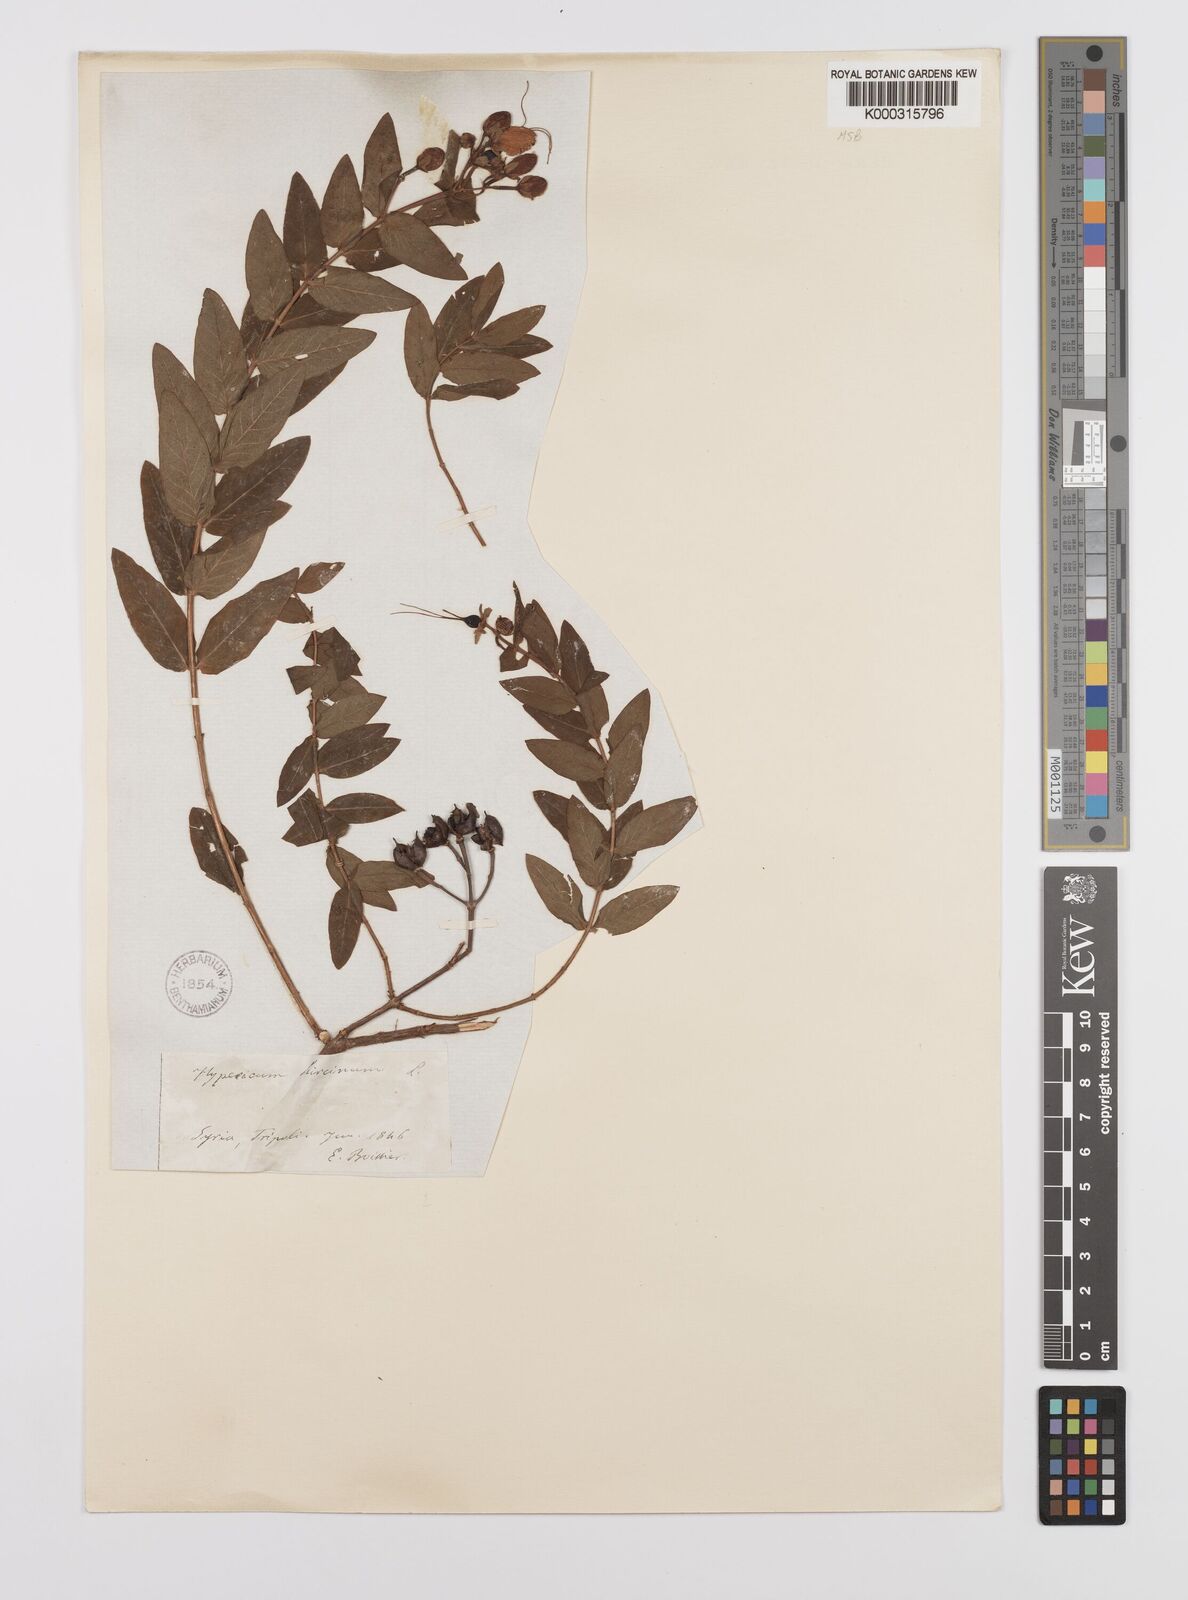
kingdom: Plantae
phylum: Tracheophyta
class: Magnoliopsida
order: Malpighiales
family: Hypericaceae
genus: Hypericum
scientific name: Hypericum hircinum
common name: Stinking tutsan
